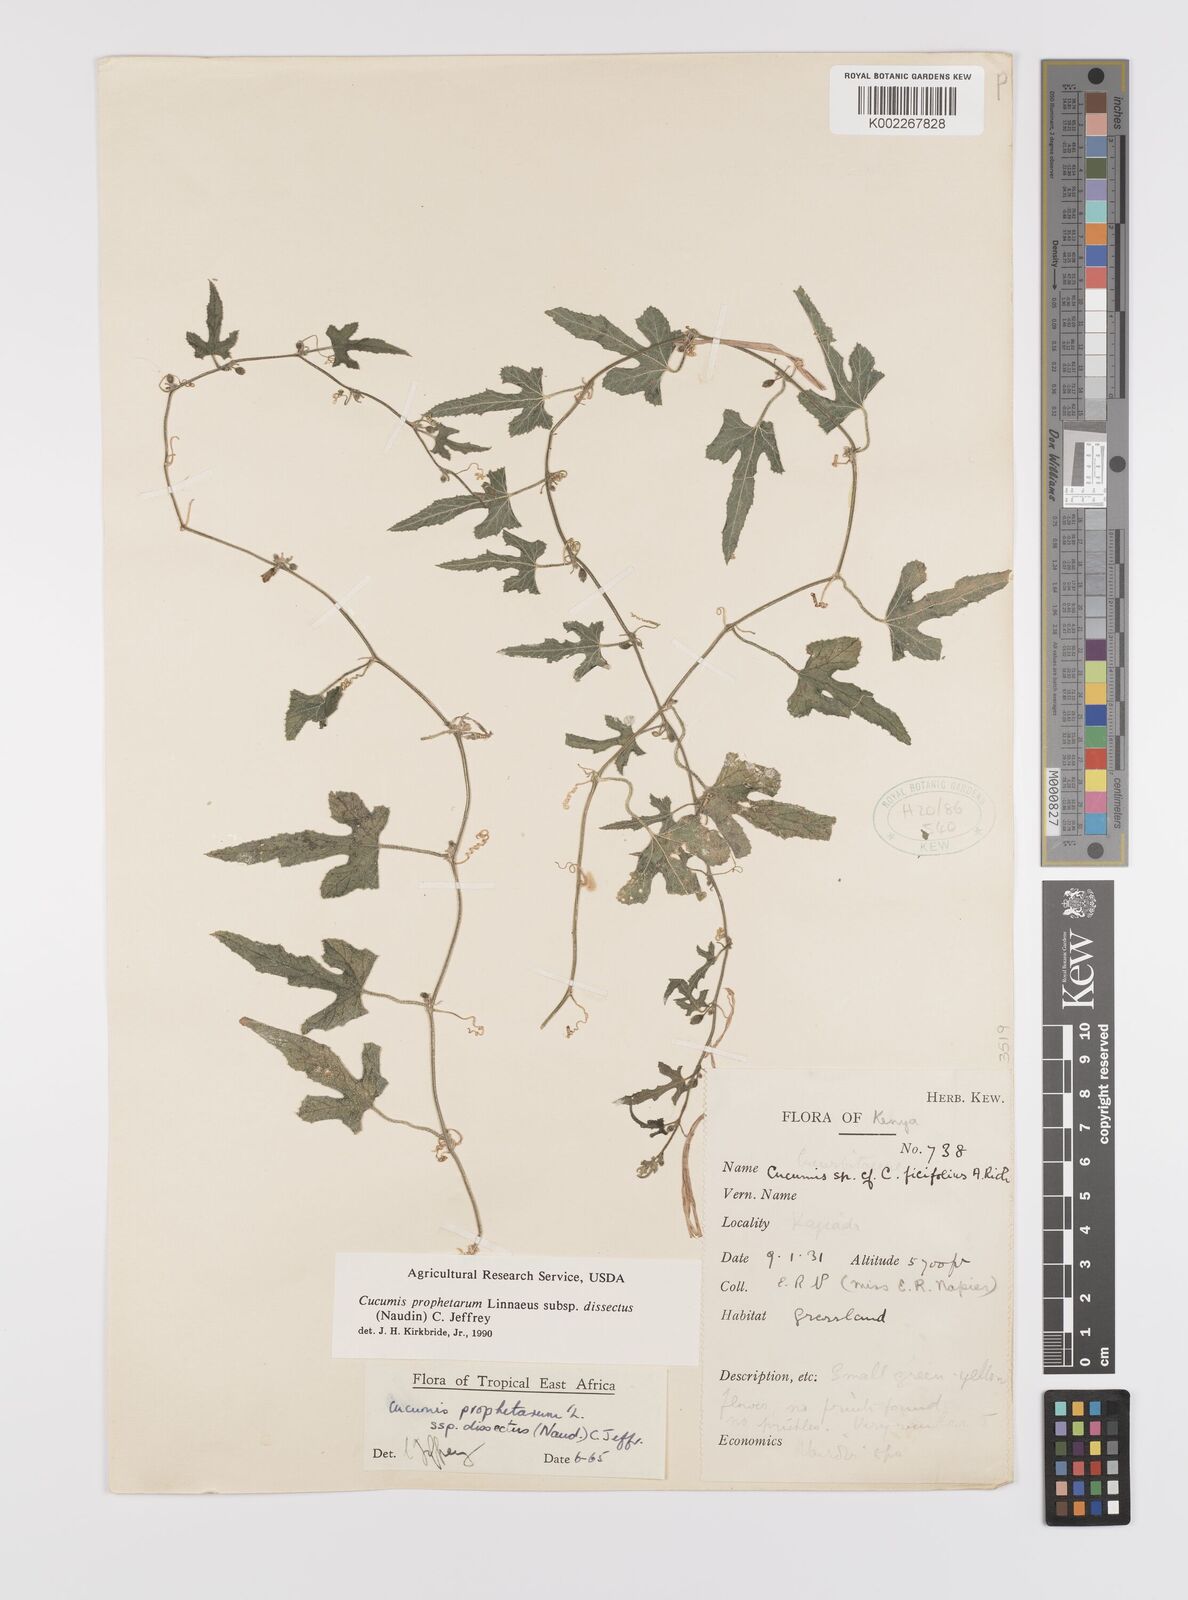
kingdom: Plantae
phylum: Tracheophyta
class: Magnoliopsida
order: Cucurbitales
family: Cucurbitaceae
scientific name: Cucurbitaceae
